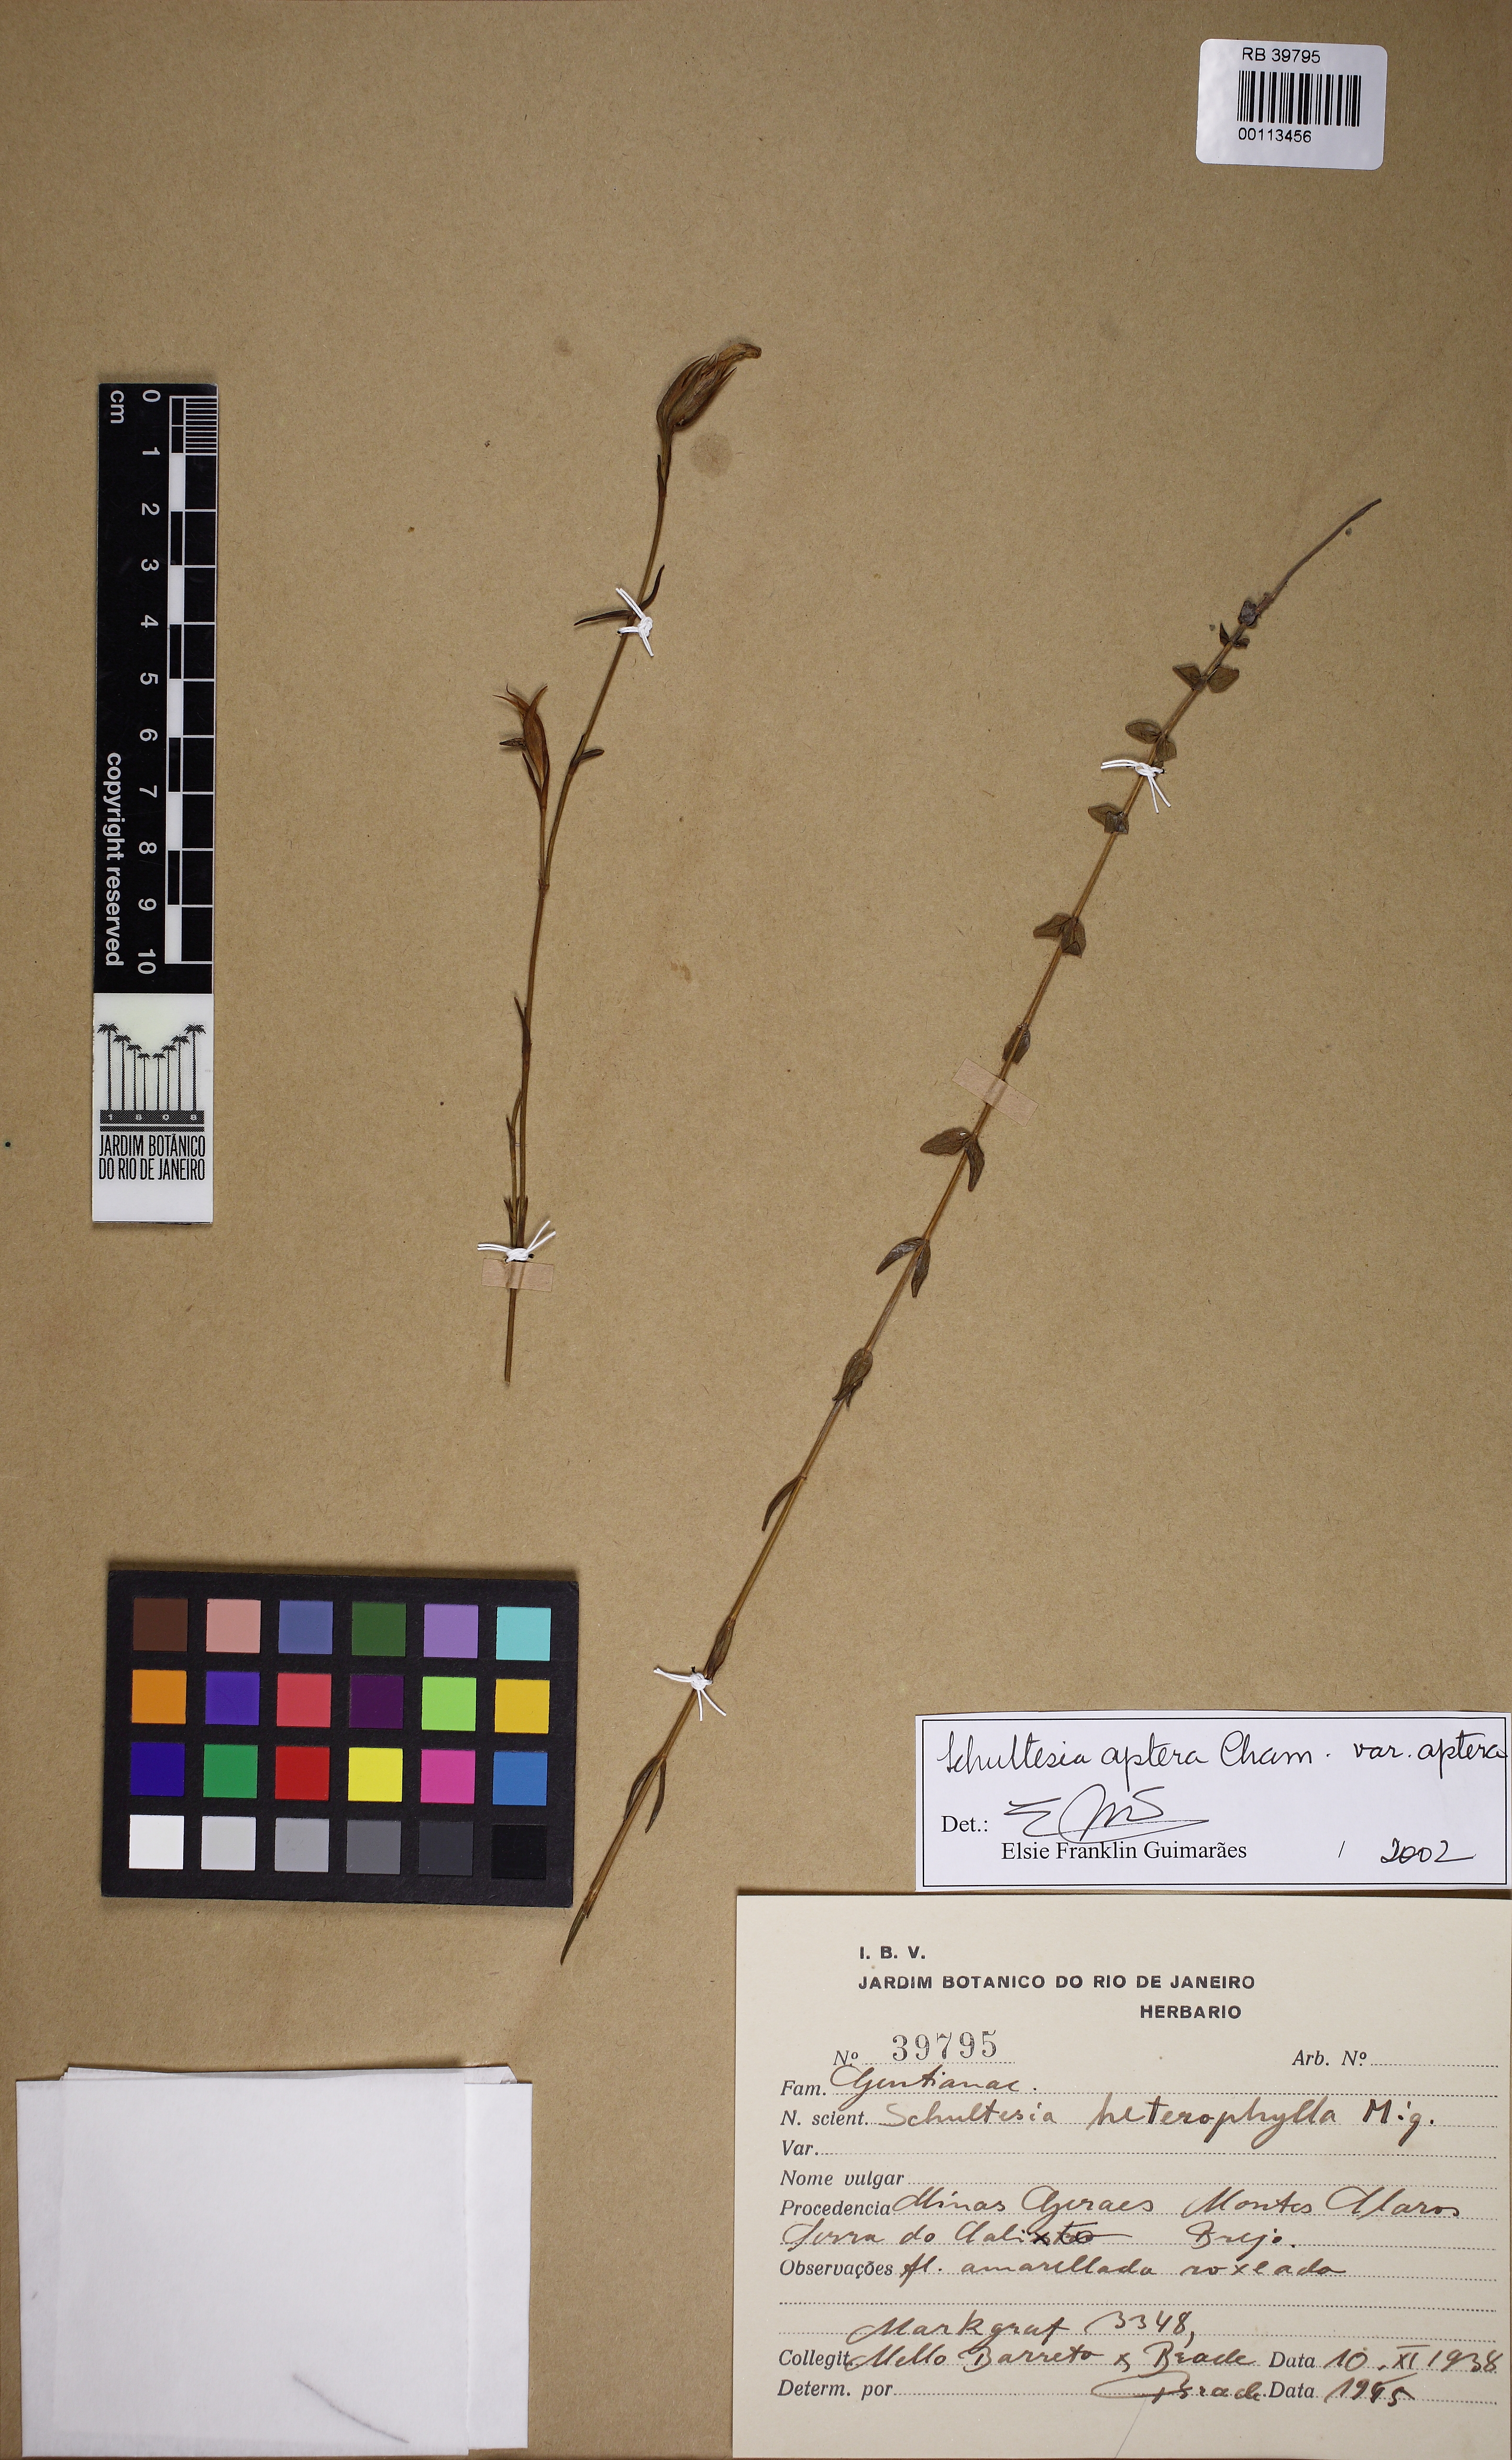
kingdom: Plantae
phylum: Tracheophyta
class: Magnoliopsida
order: Gentianales
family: Gentianaceae
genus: Schultesia
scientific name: Schultesia aptera
